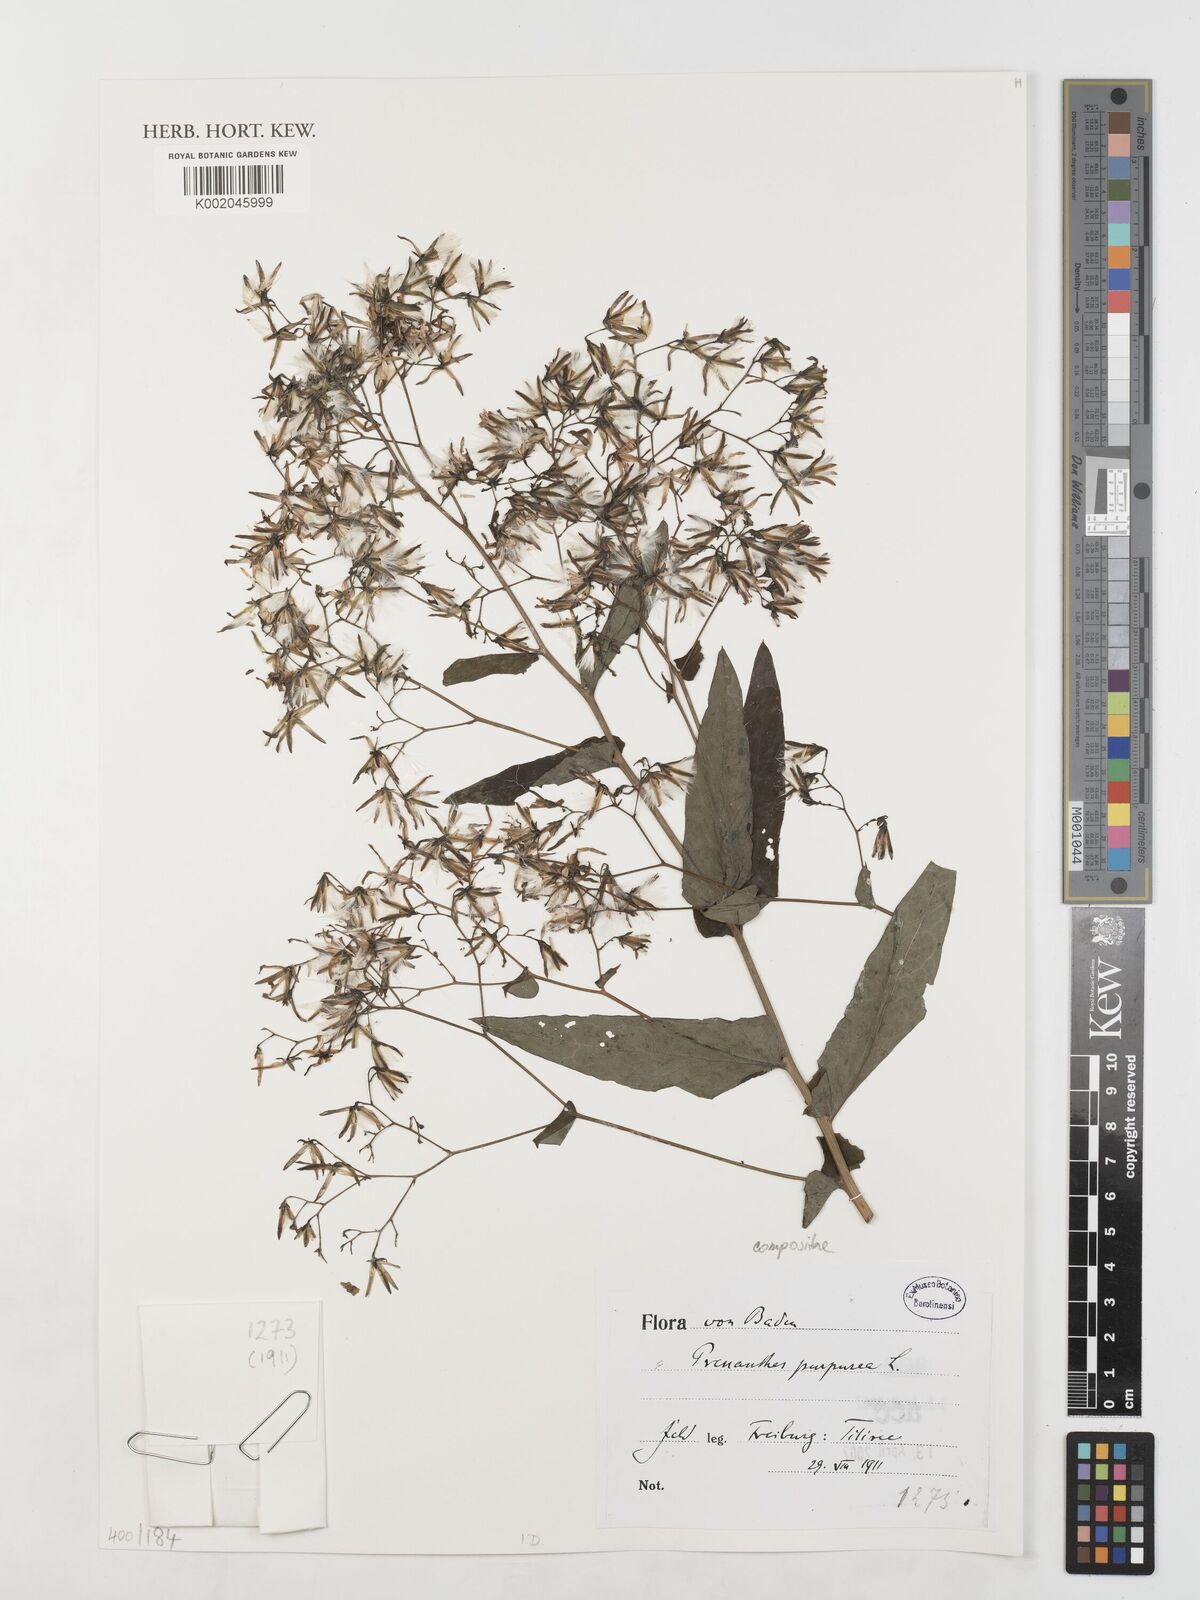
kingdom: Plantae
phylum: Tracheophyta
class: Magnoliopsida
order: Asterales
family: Asteraceae
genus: Prenanthes
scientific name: Prenanthes purpurea
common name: Purple lettuce
